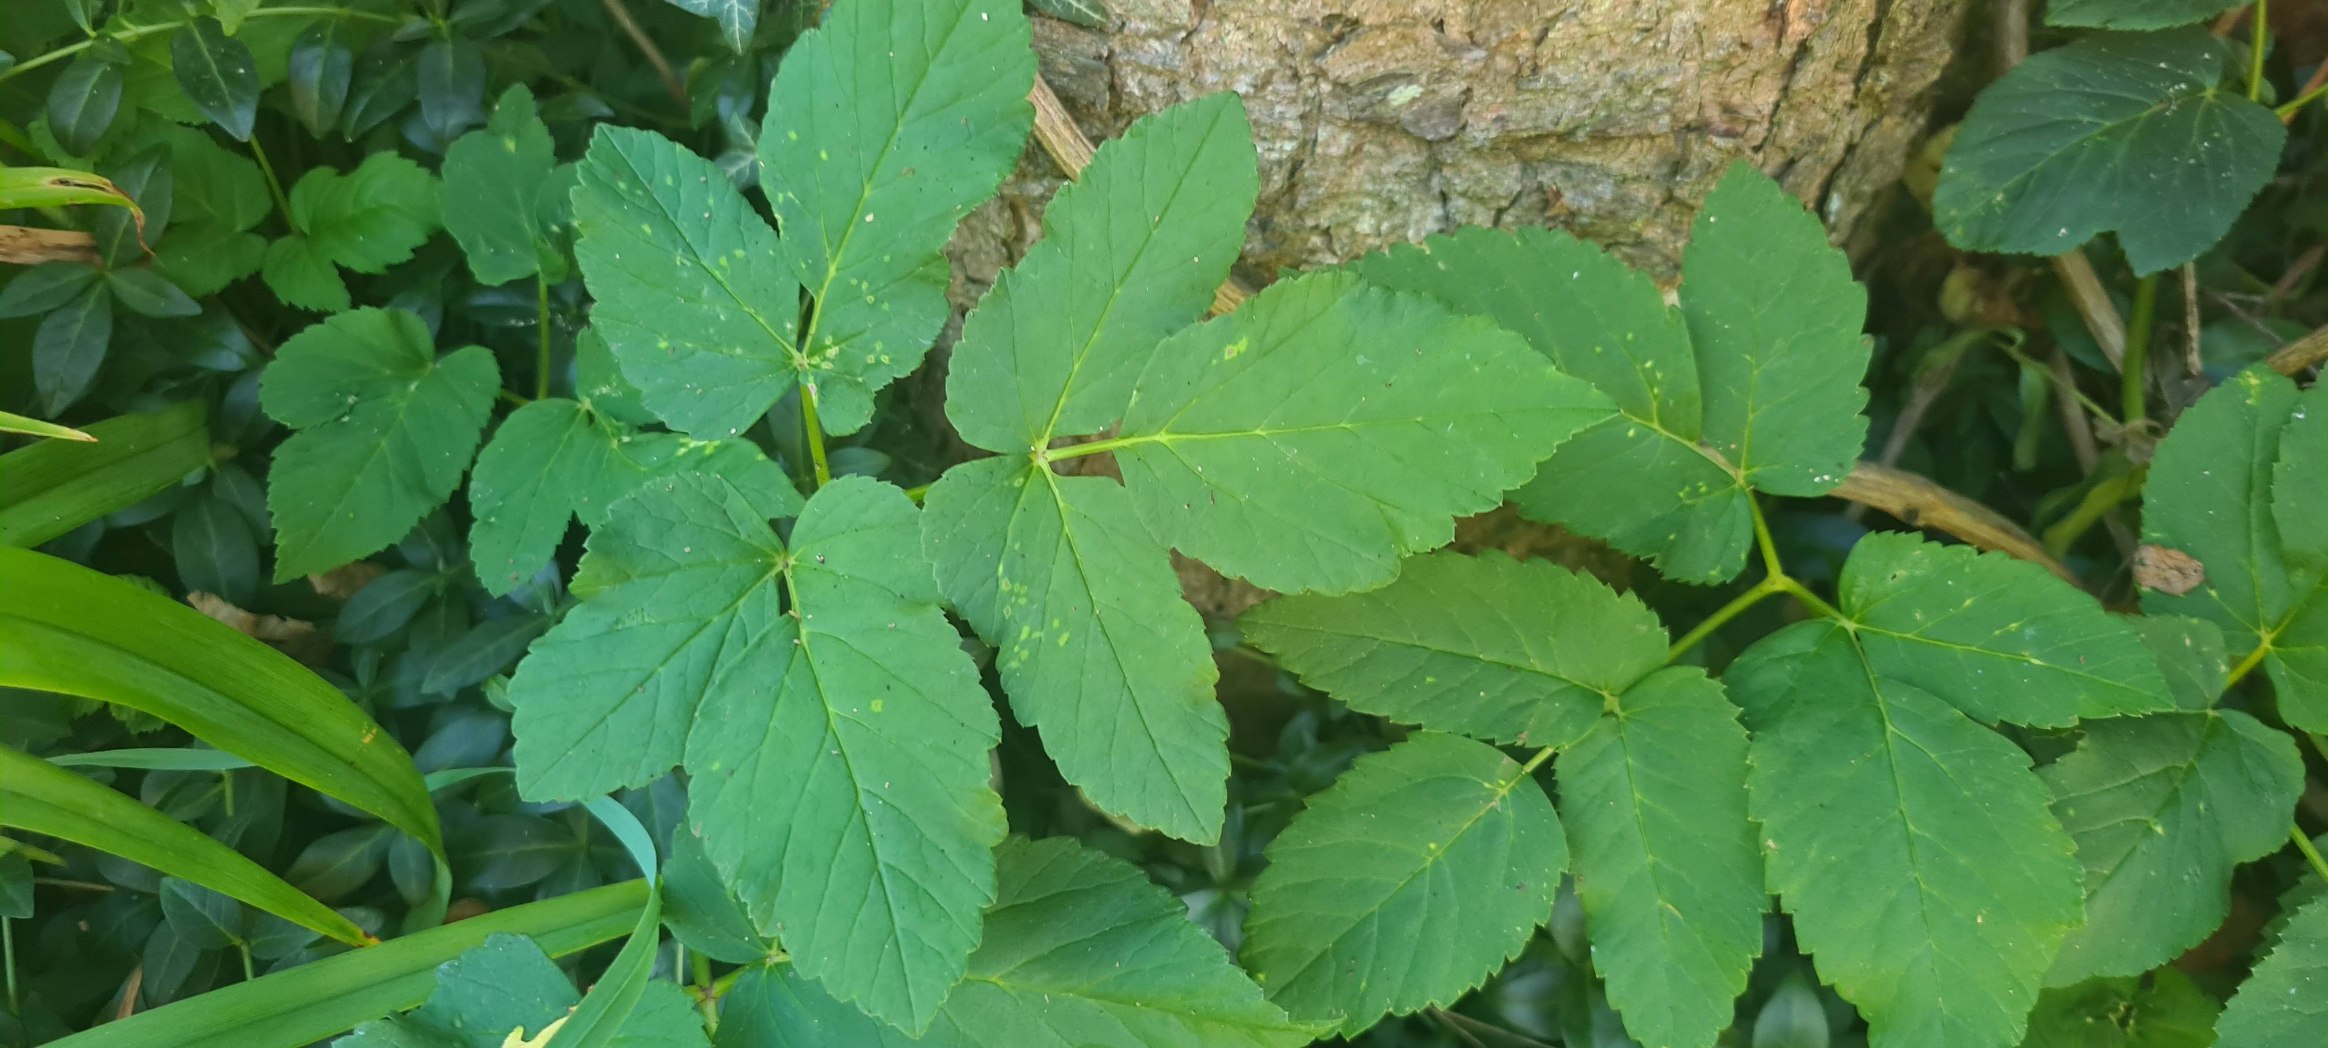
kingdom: Plantae
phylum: Tracheophyta
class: Magnoliopsida
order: Apiales
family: Apiaceae
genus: Aegopodium
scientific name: Aegopodium podagraria
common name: Skvalderkål
